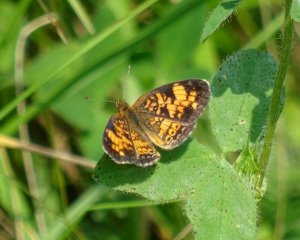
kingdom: Animalia
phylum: Arthropoda
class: Insecta
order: Lepidoptera
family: Nymphalidae
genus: Phyciodes
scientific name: Phyciodes tharos
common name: Pearl Crescent
